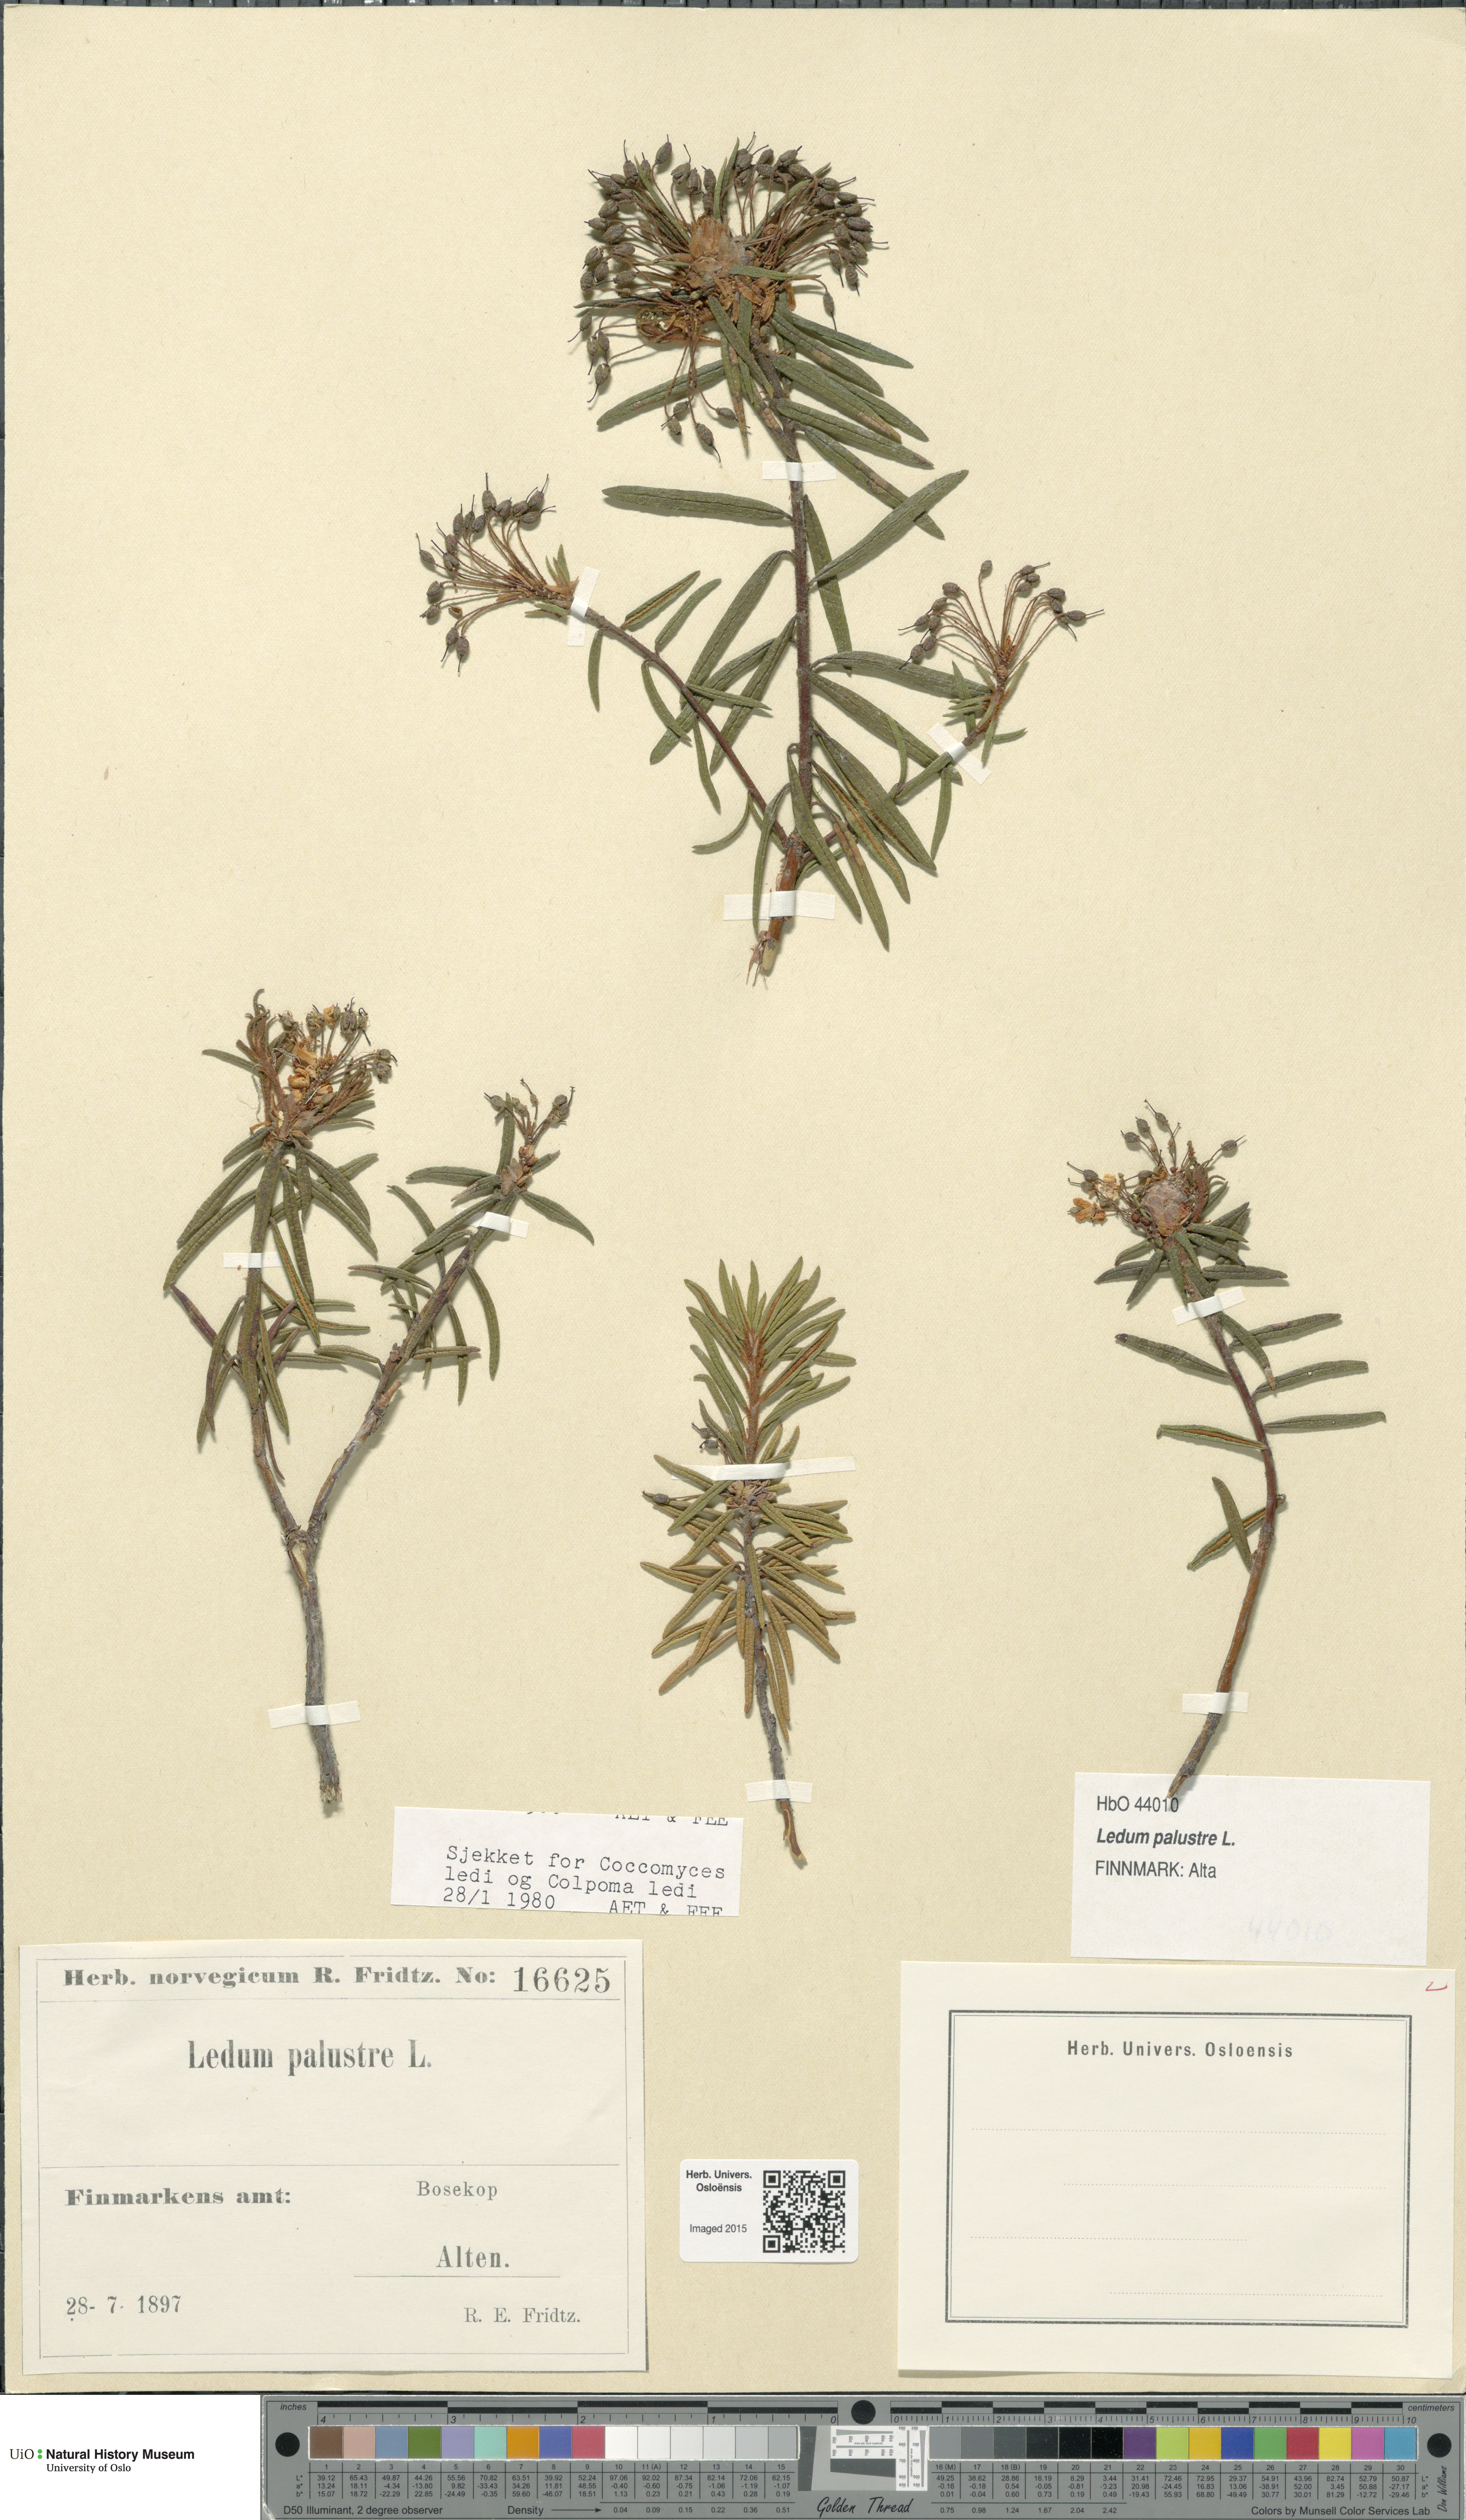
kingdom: Plantae
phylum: Tracheophyta
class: Magnoliopsida
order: Ericales
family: Ericaceae
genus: Rhododendron
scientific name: Rhododendron tomentosum
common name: Marsh labrador tea
